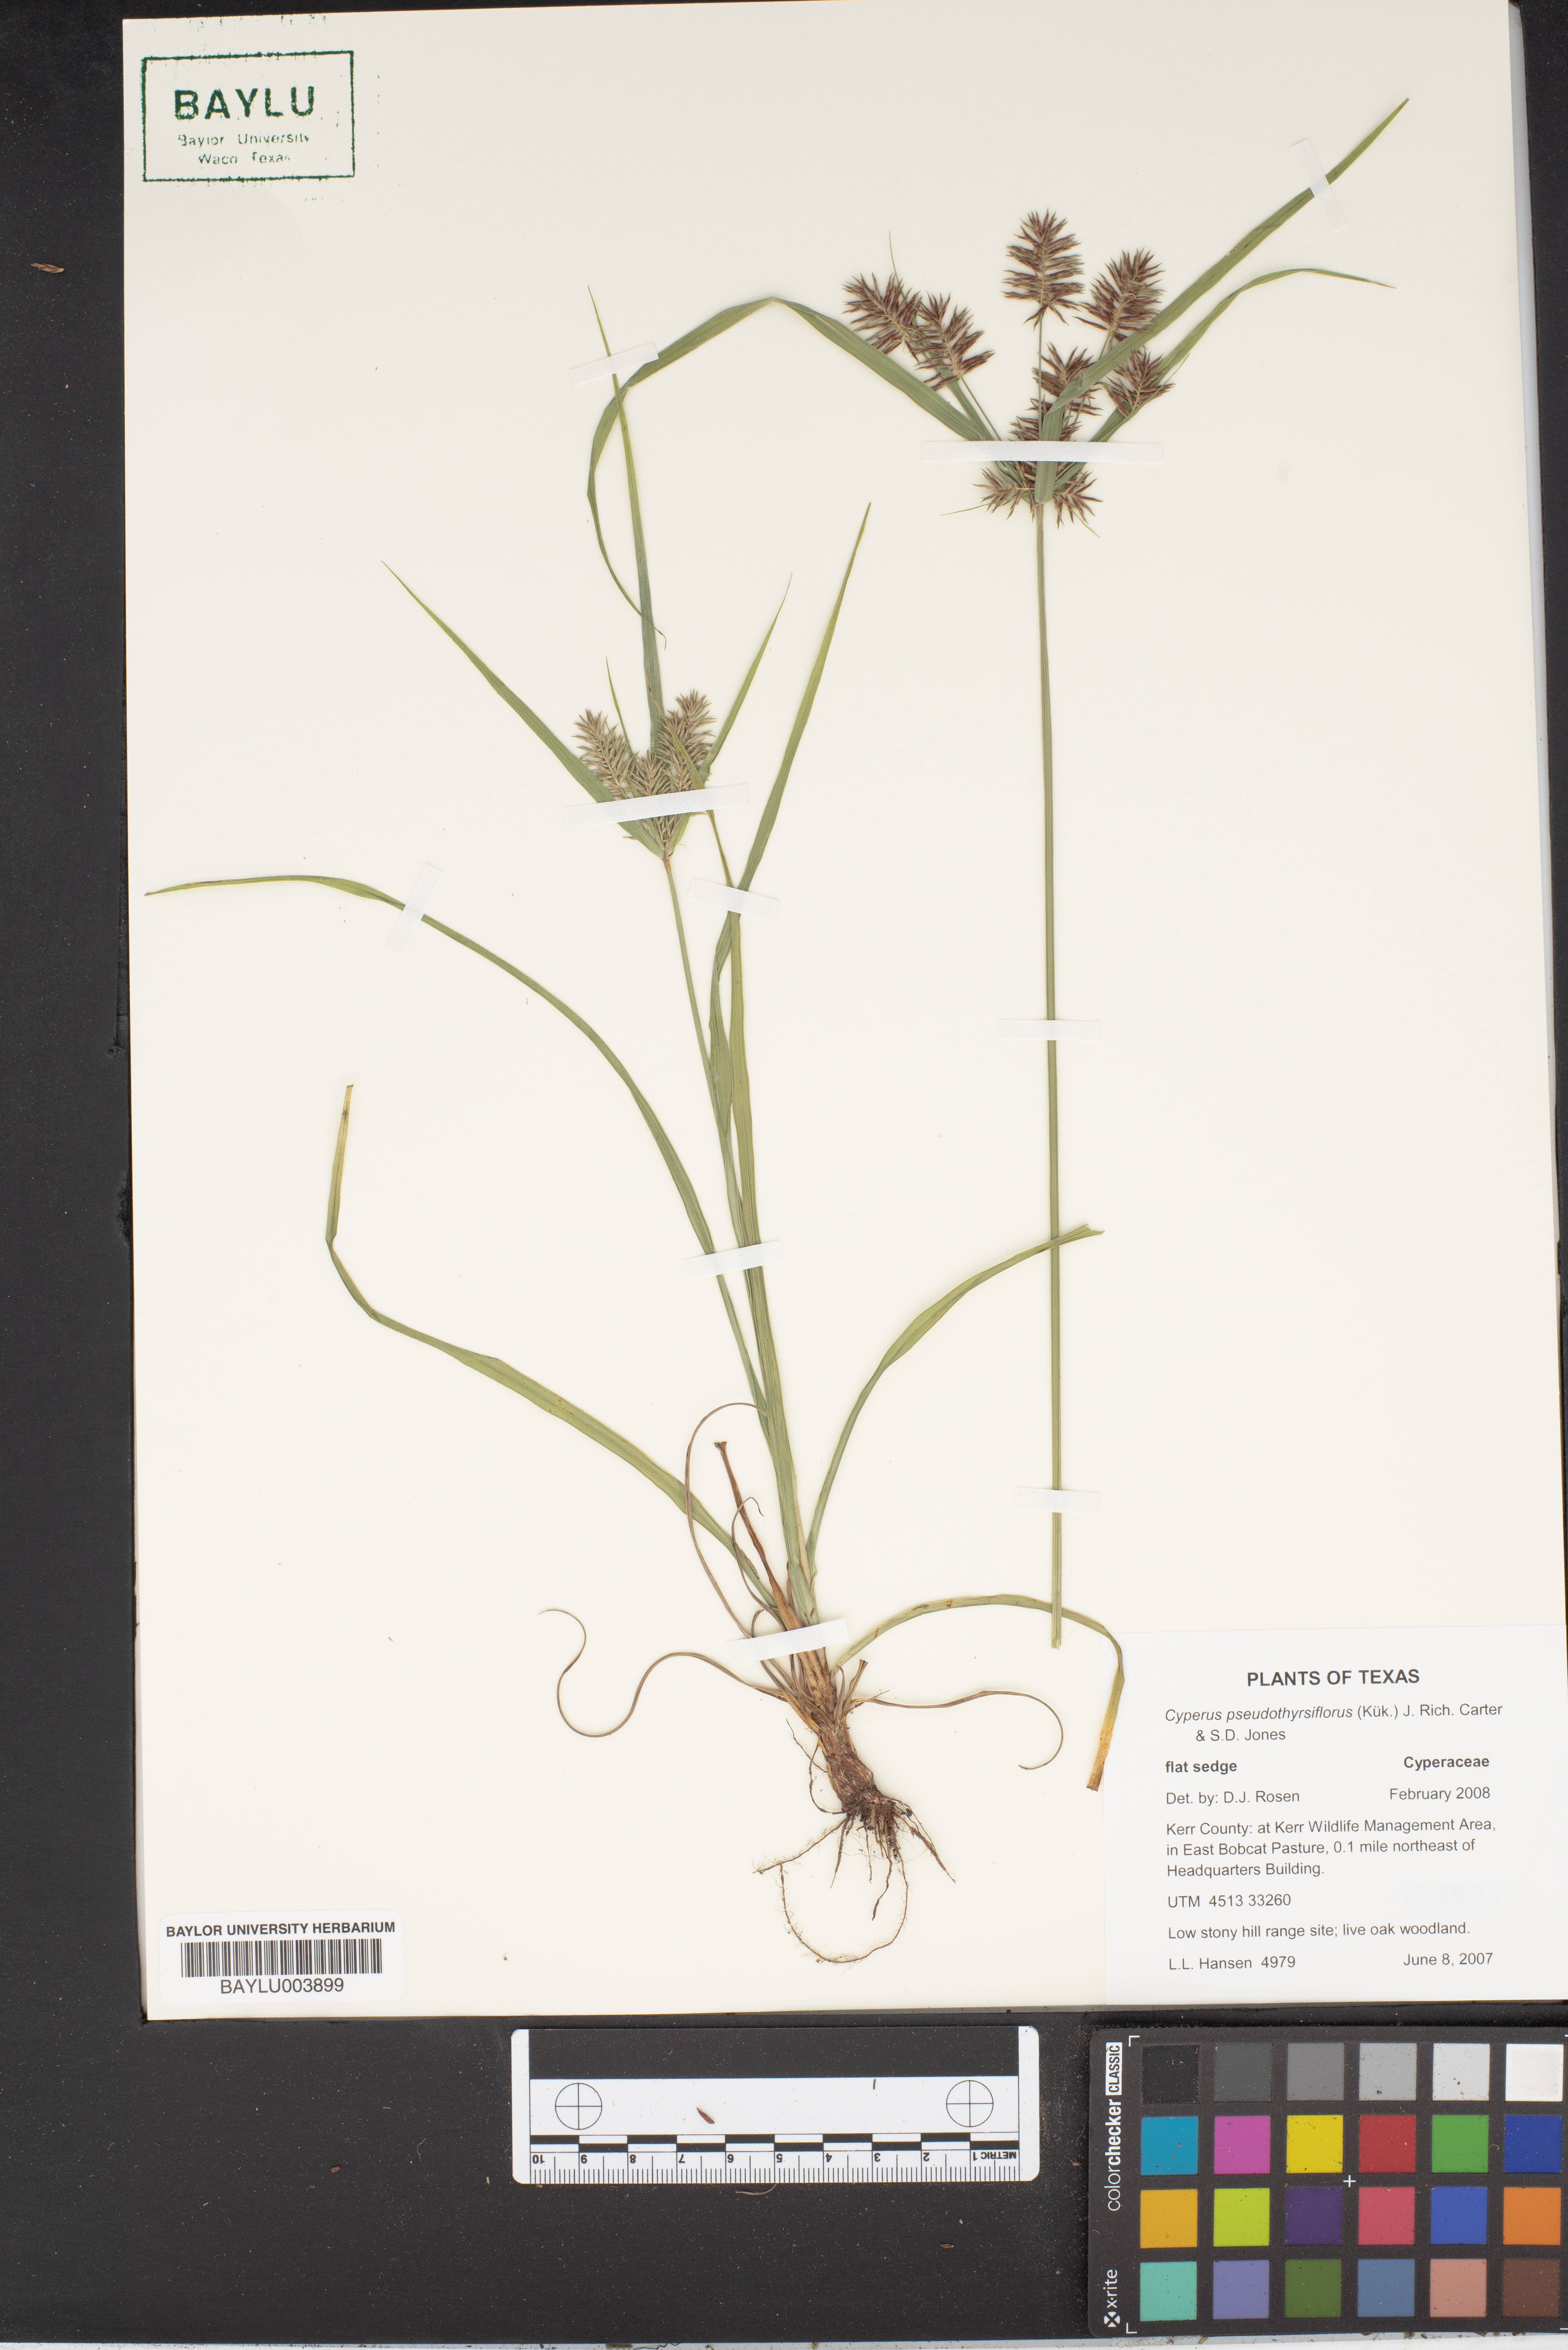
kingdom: Plantae
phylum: Tracheophyta
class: Liliopsida
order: Poales
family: Cyperaceae
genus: Cyperus
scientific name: Cyperus pseudothyrsiflorus
